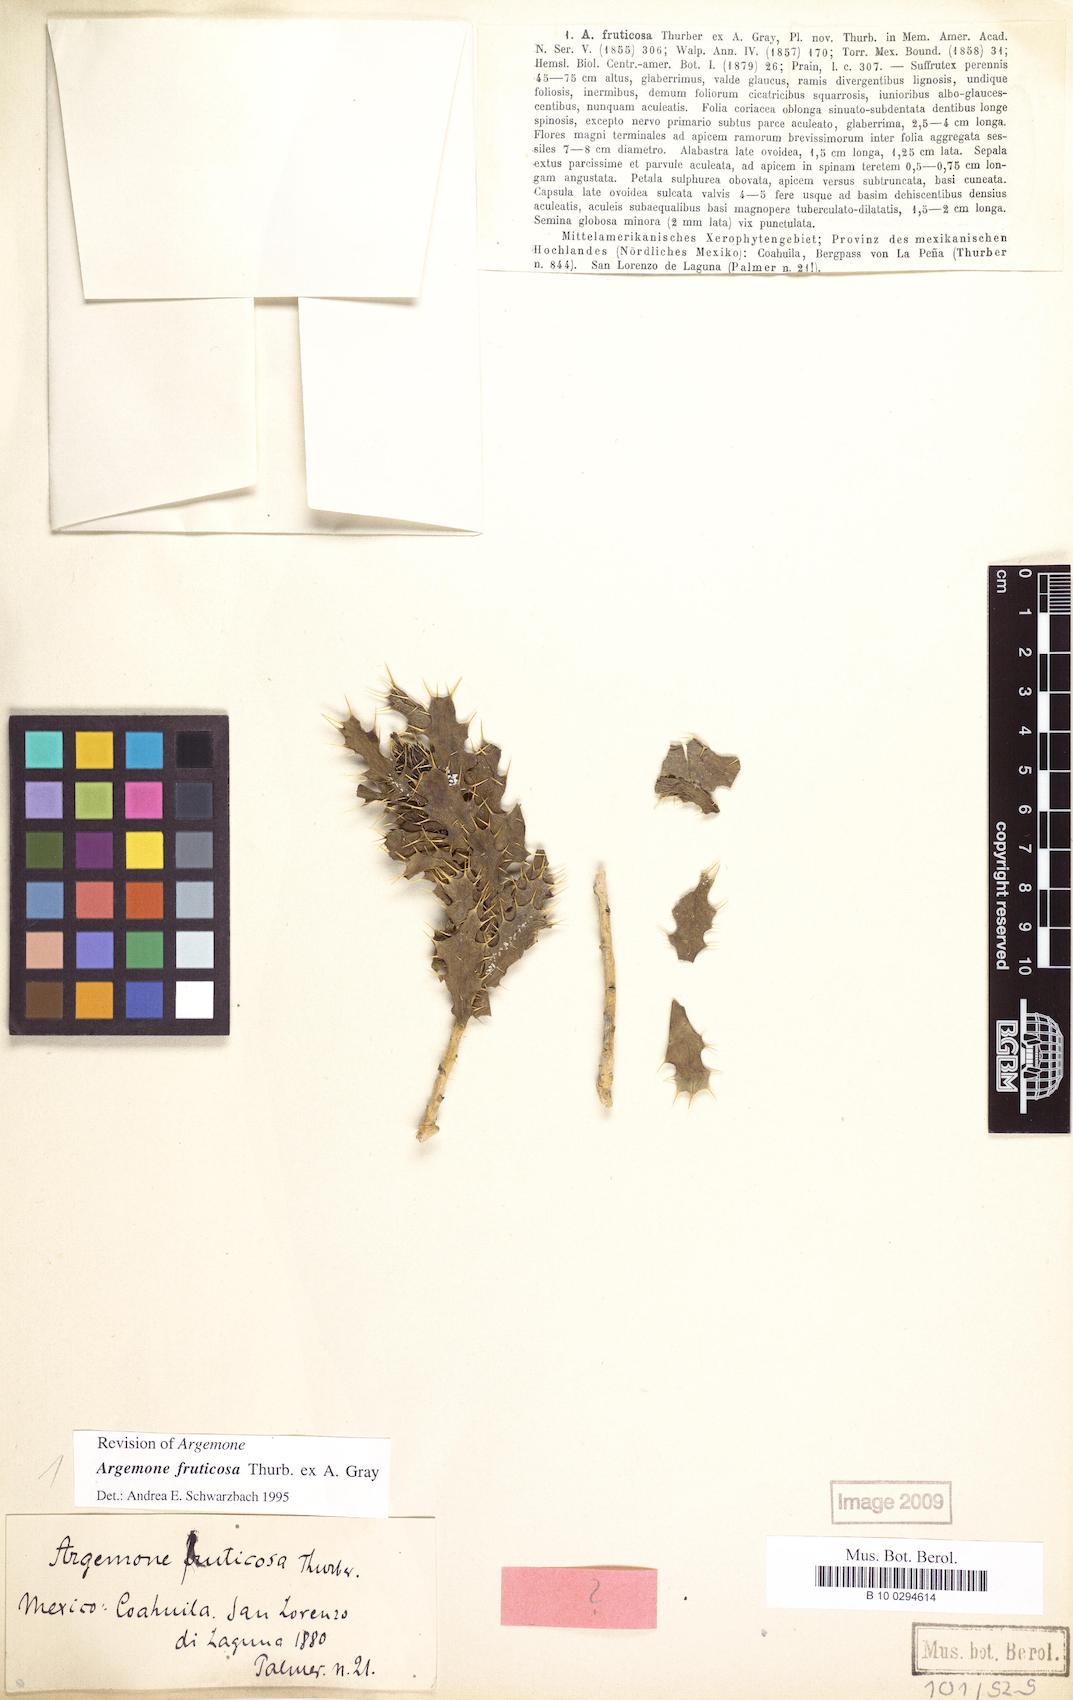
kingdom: Plantae
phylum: Tracheophyta
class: Magnoliopsida
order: Ranunculales
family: Papaveraceae
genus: Argemone
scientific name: Argemone fruticosa
